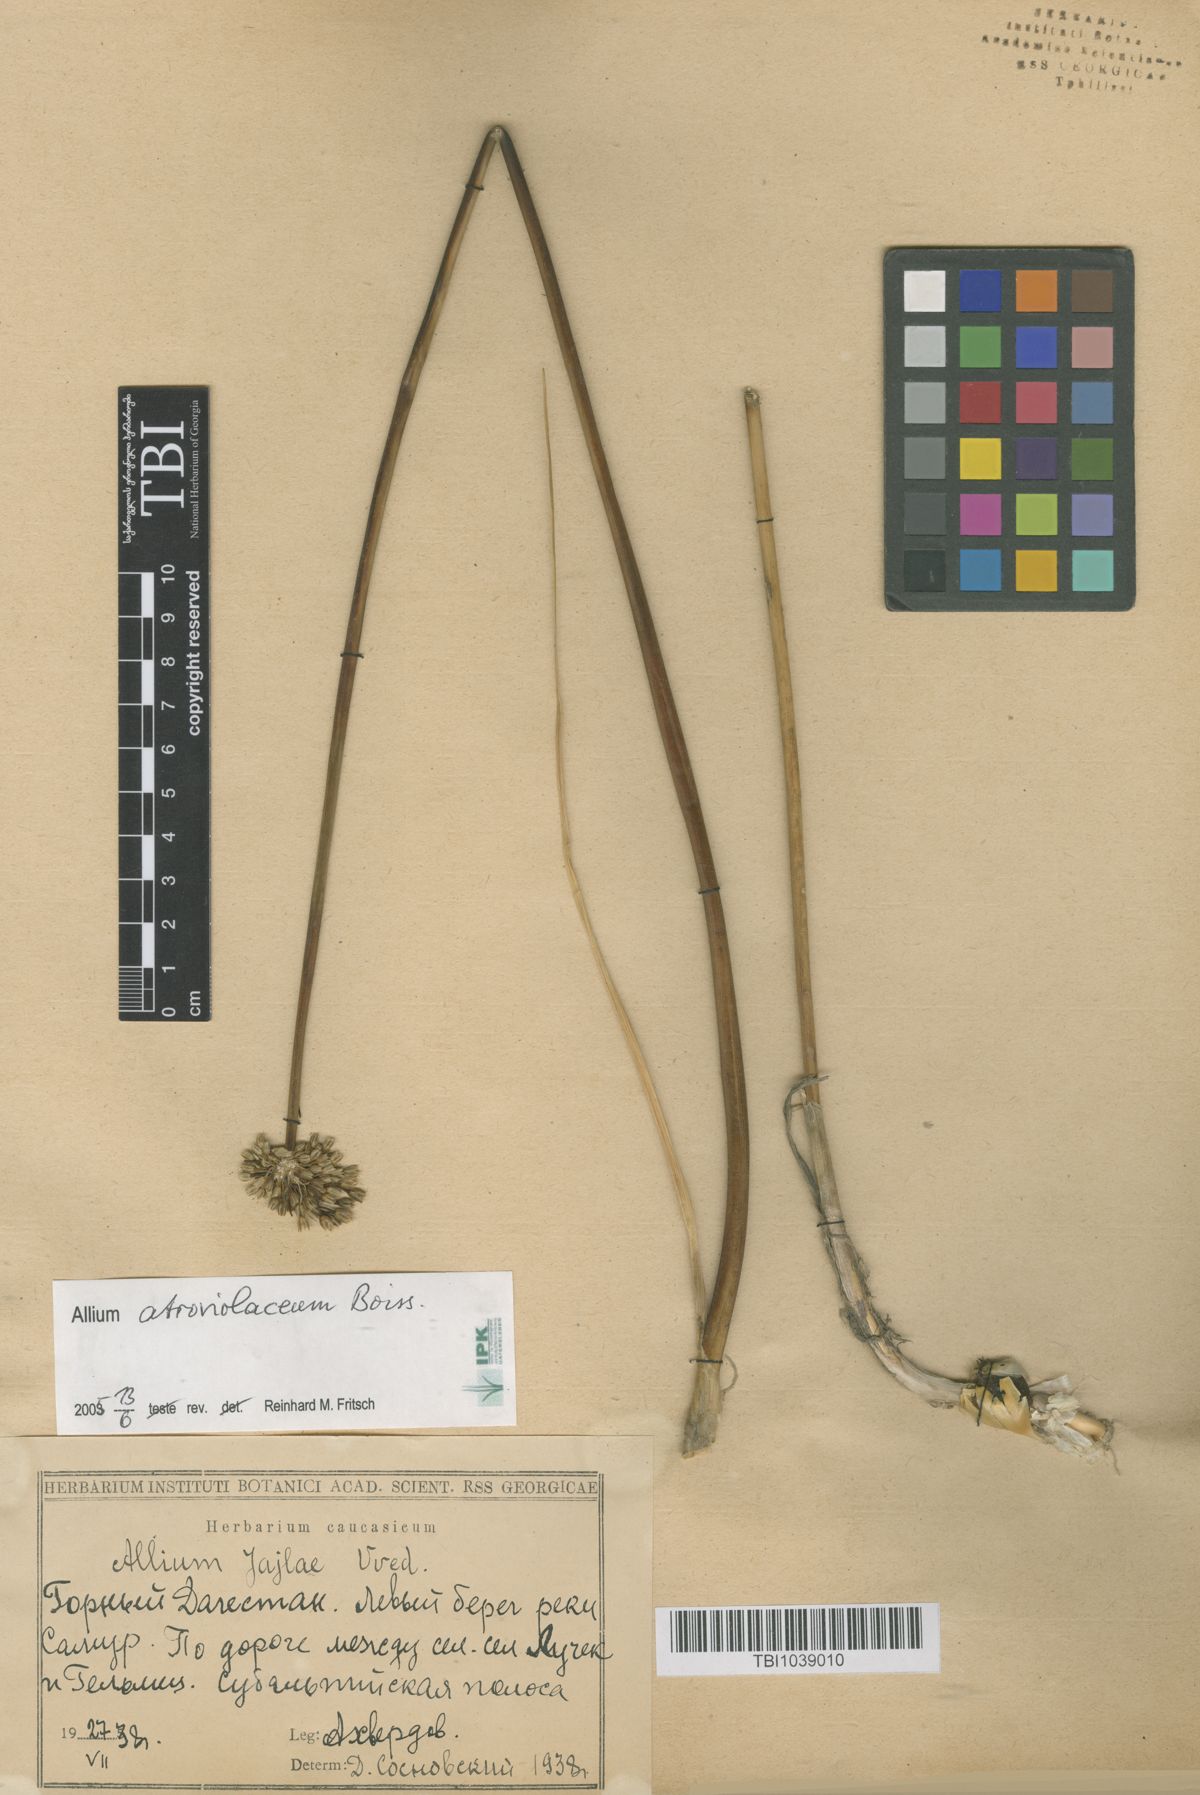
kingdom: Plantae
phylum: Tracheophyta
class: Liliopsida
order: Asparagales
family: Amaryllidaceae
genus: Allium
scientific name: Allium rotundum
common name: Sand leek
